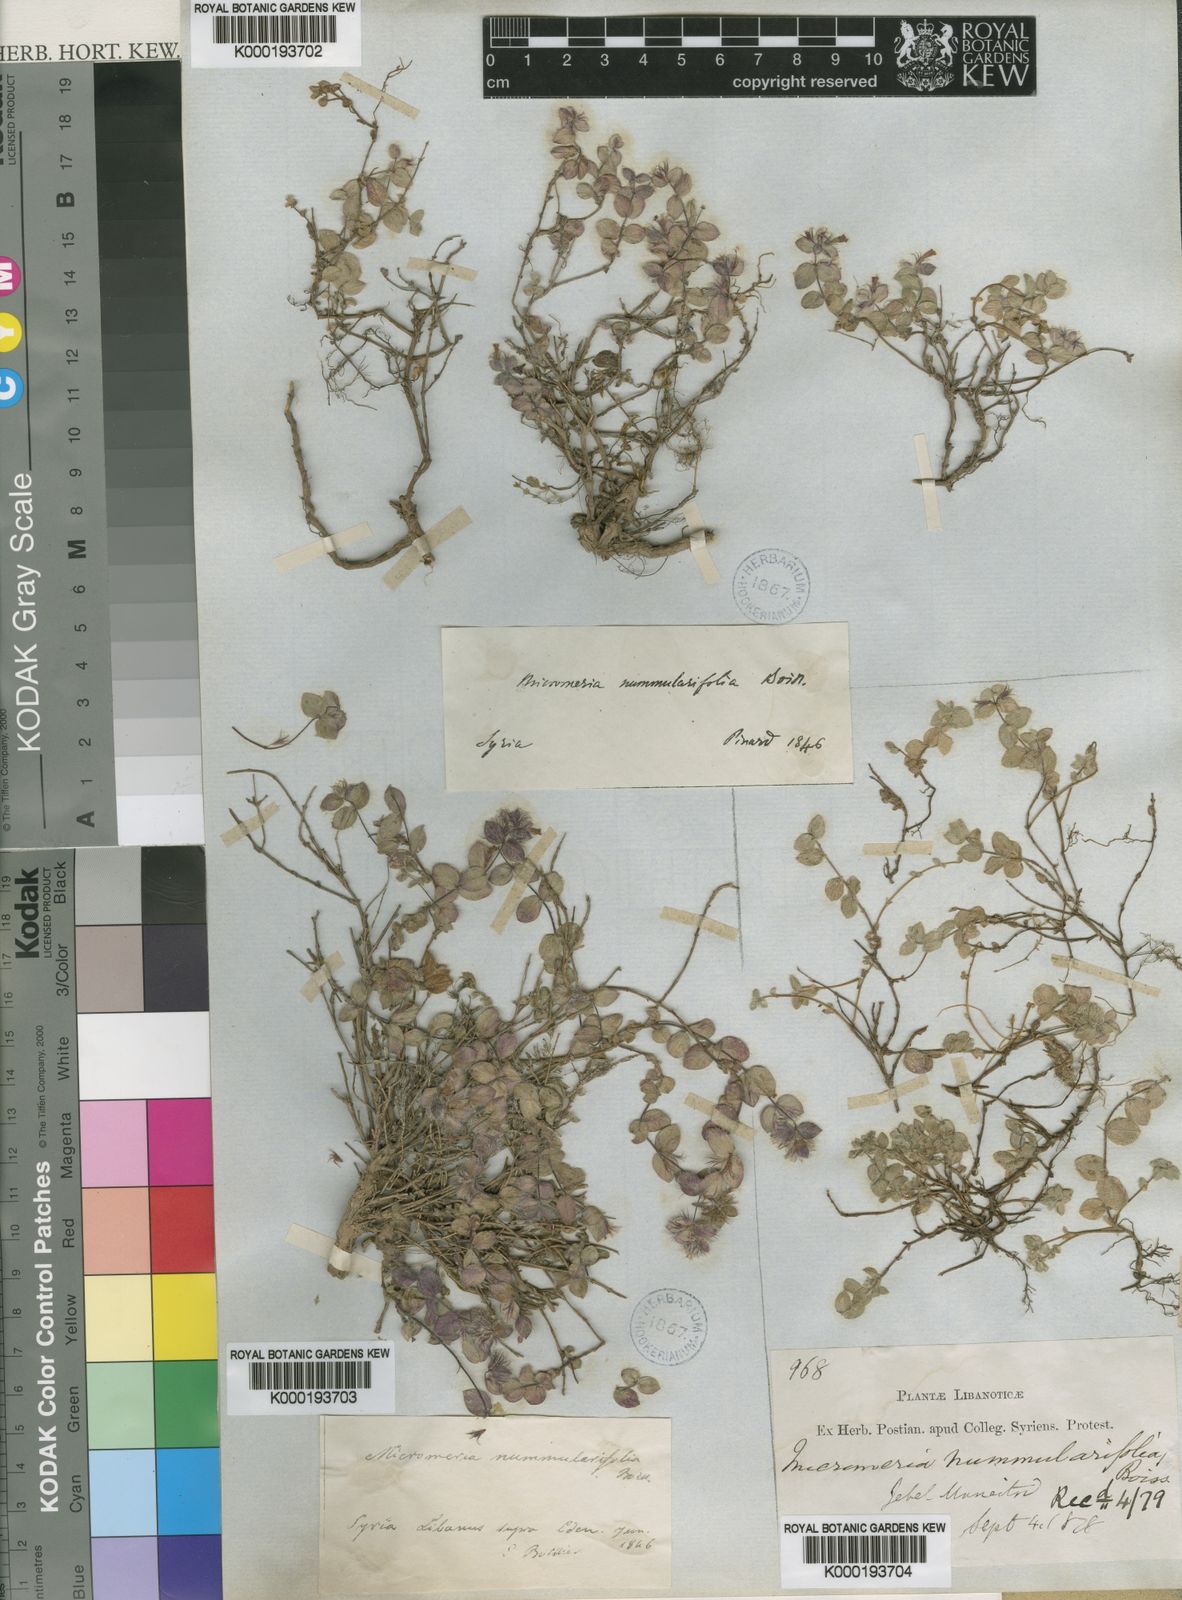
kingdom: Plantae
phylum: Tracheophyta
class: Magnoliopsida
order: Lamiales
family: Lamiaceae
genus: Clinopodium
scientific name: Clinopodium nummulariifolium
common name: Nummular-leaved savory
